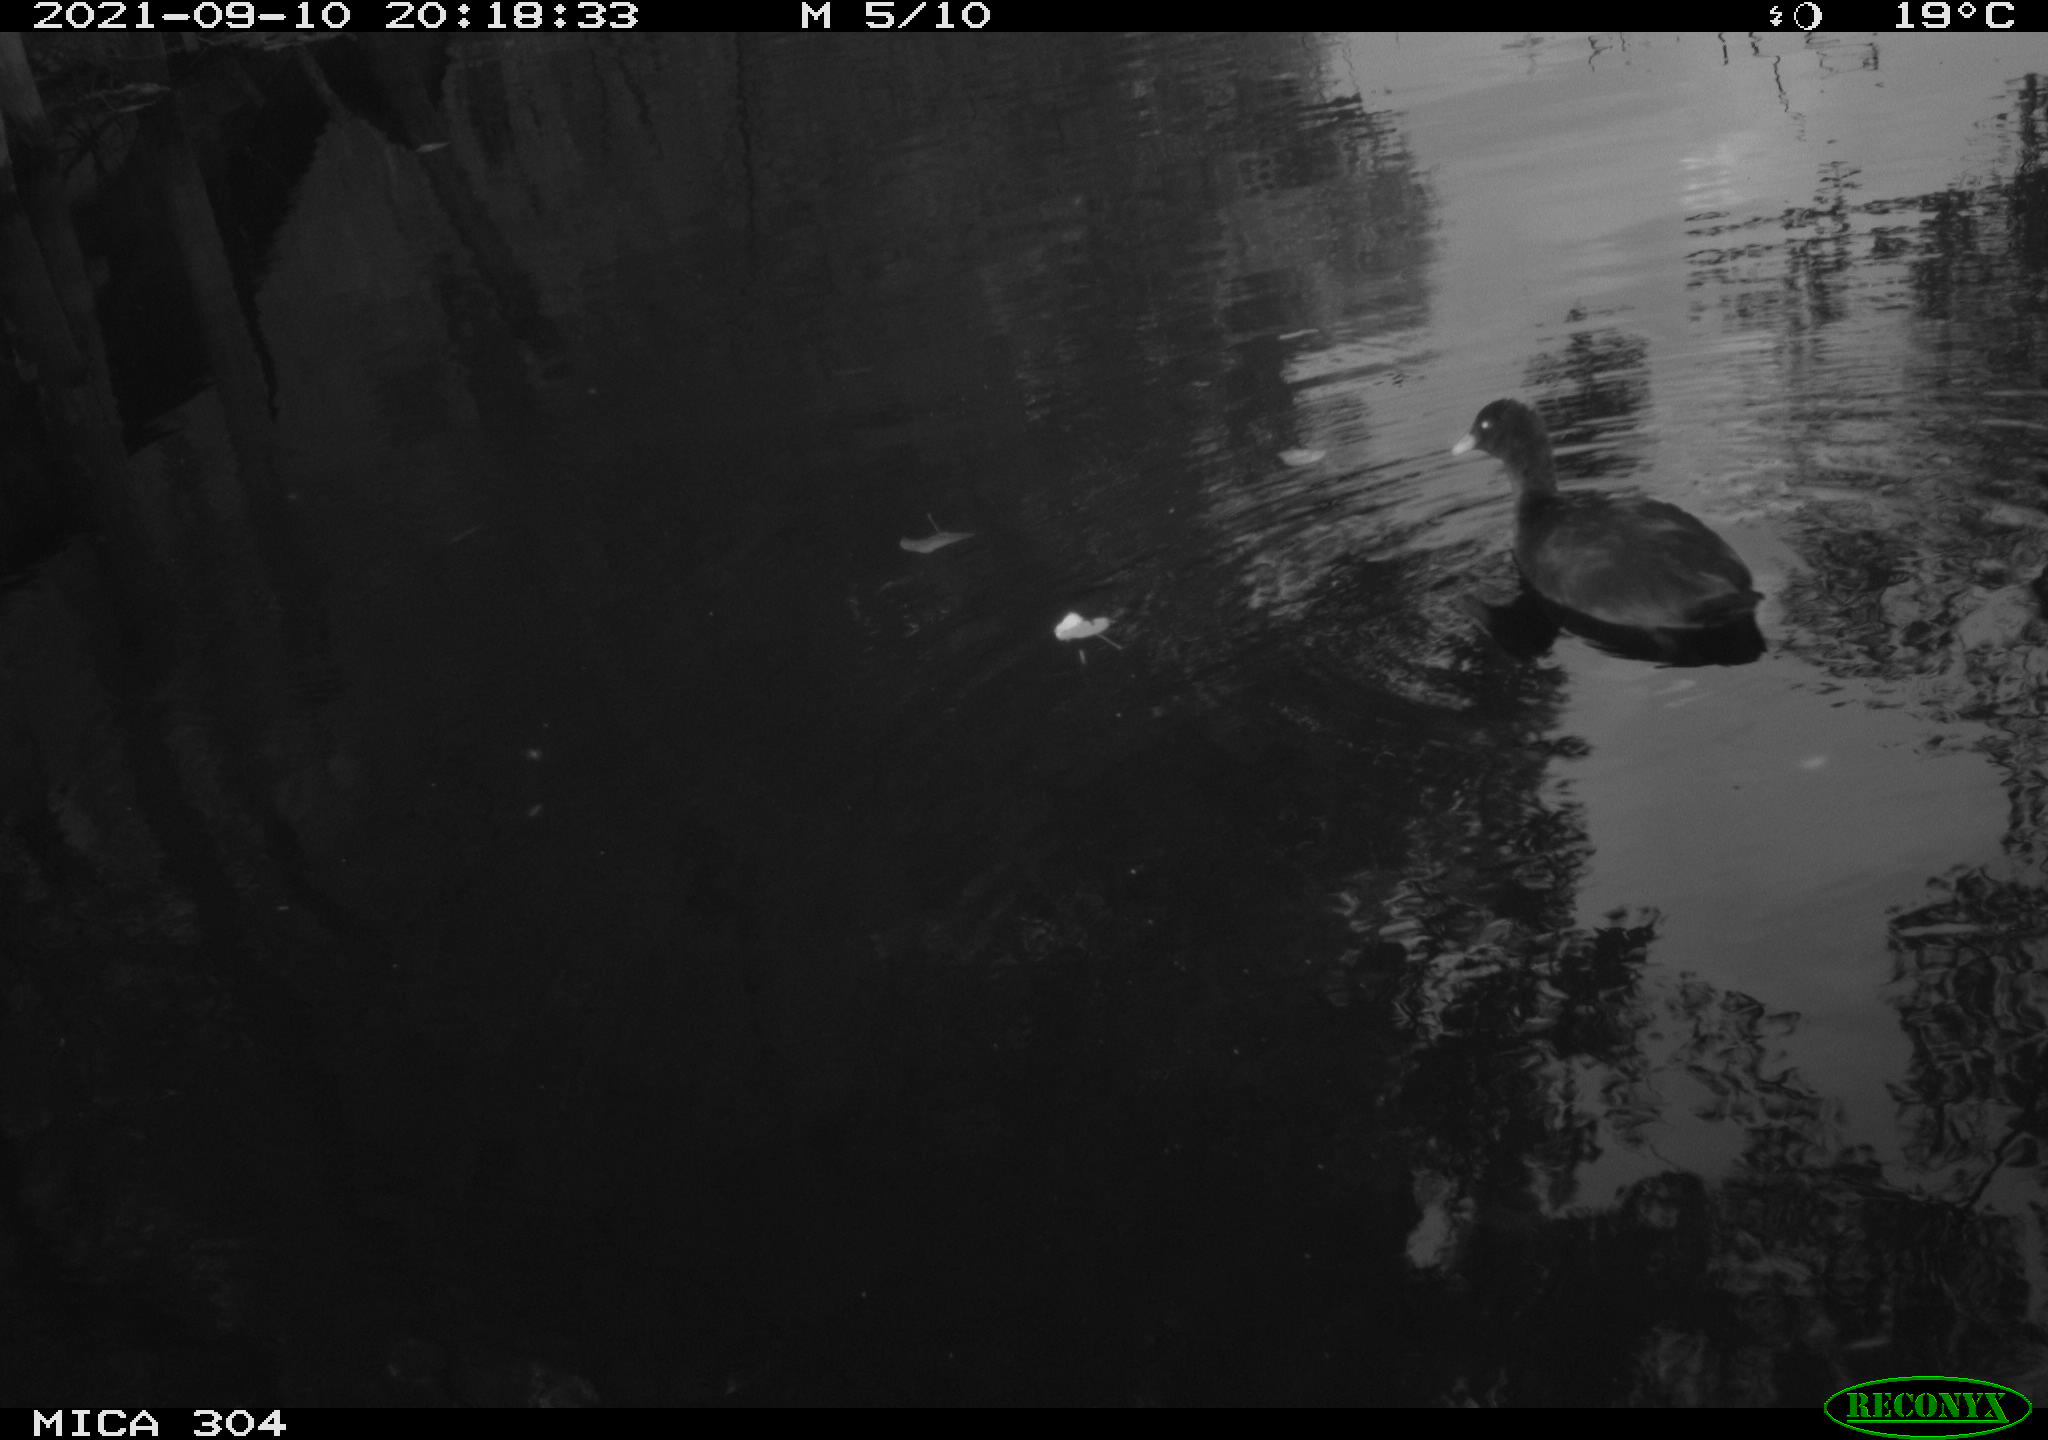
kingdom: Animalia
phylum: Chordata
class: Aves
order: Gruiformes
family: Rallidae
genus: Fulica
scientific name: Fulica atra
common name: Eurasian coot
